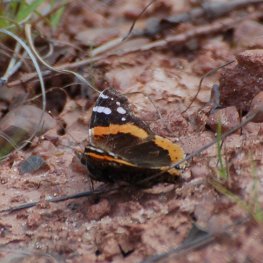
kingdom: Animalia
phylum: Arthropoda
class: Insecta
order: Lepidoptera
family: Nymphalidae
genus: Vanessa
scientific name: Vanessa atalanta
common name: Red Admiral
